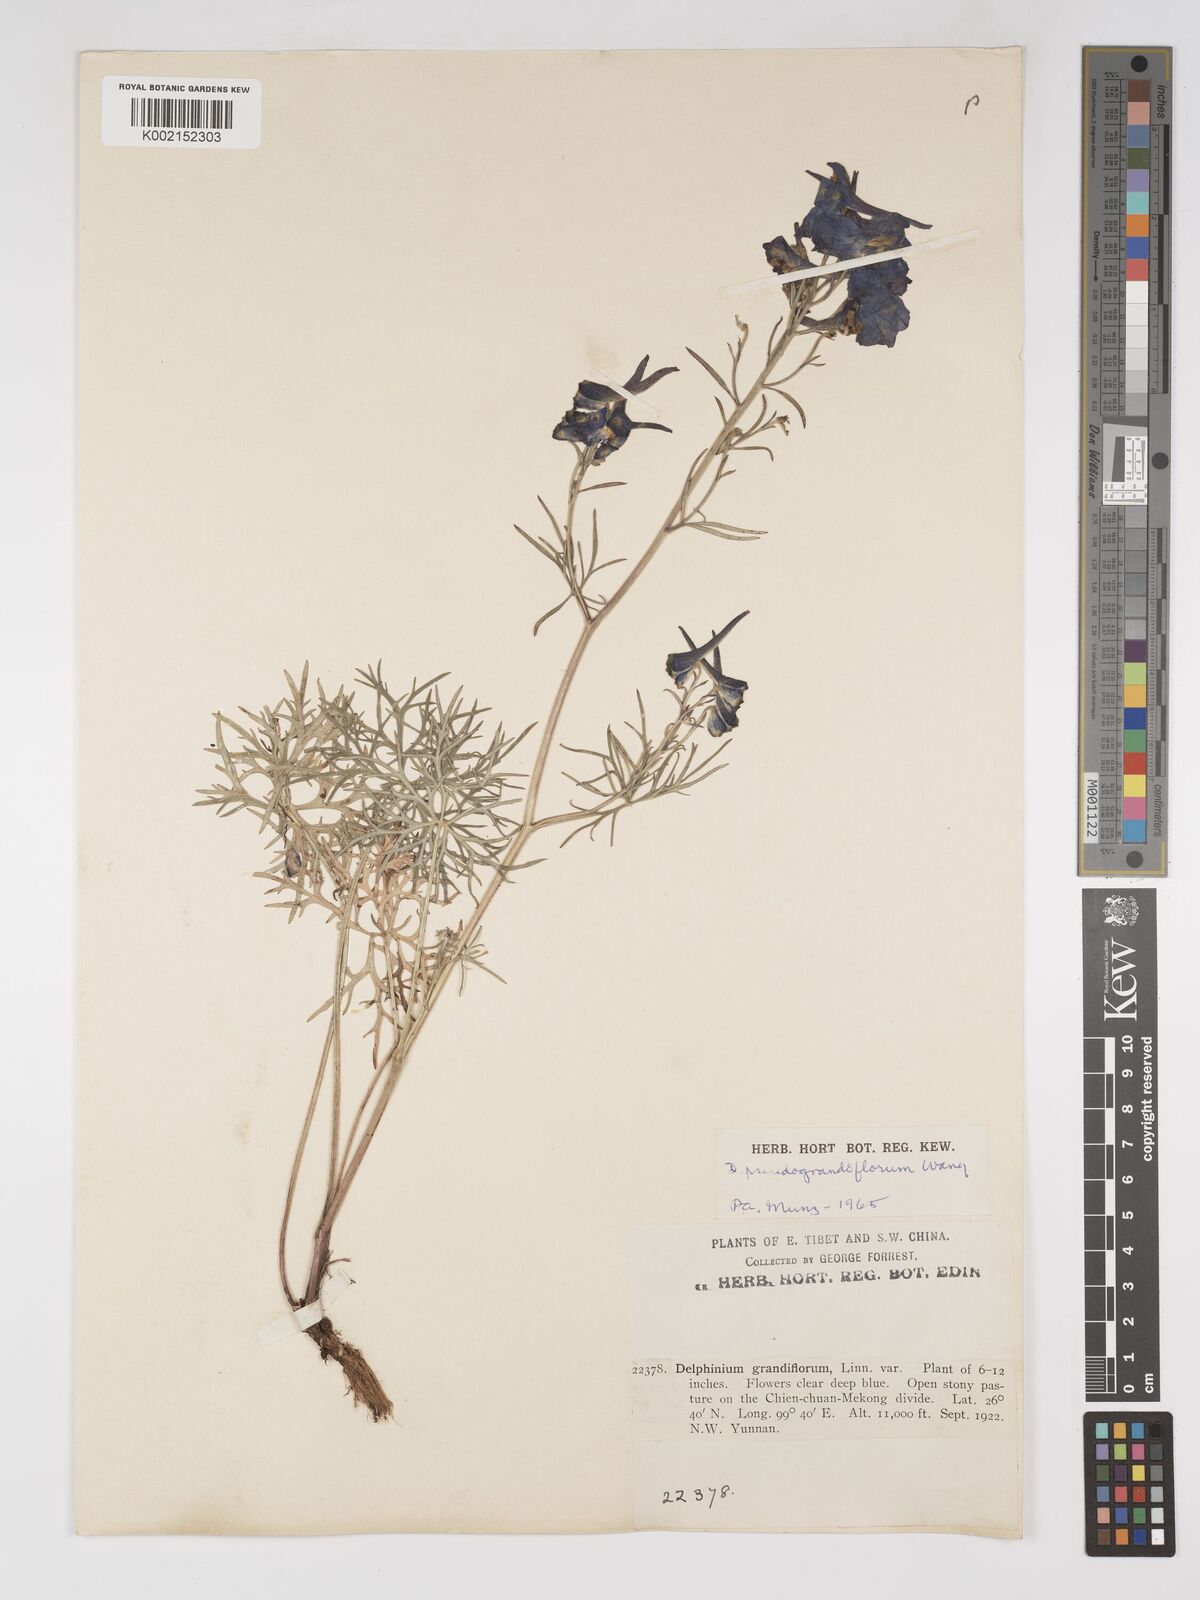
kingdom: Plantae
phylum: Tracheophyta
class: Magnoliopsida
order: Ranunculales
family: Ranunculaceae
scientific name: Ranunculaceae
